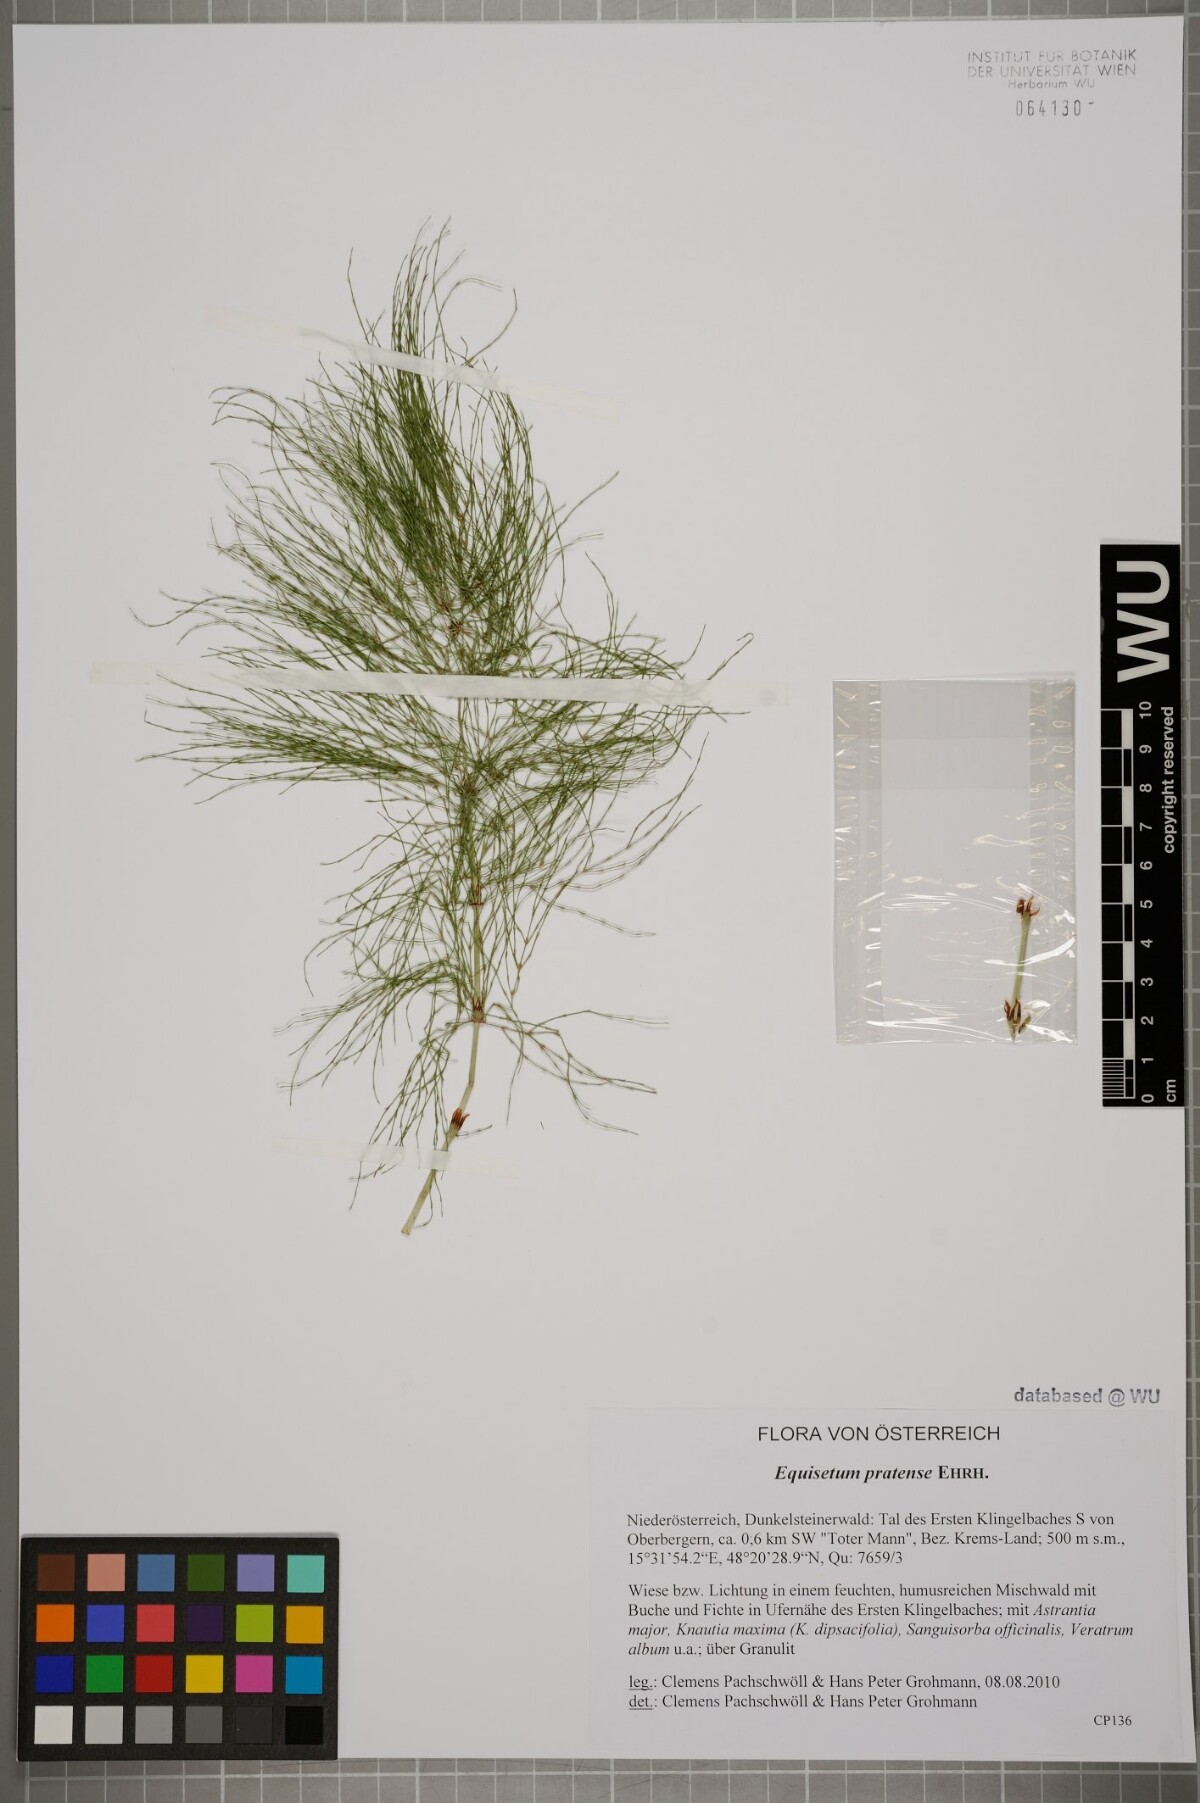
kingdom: Plantae
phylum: Tracheophyta
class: Polypodiopsida
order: Equisetales
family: Equisetaceae
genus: Equisetum
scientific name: Equisetum sylvaticum
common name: Wood horsetail
